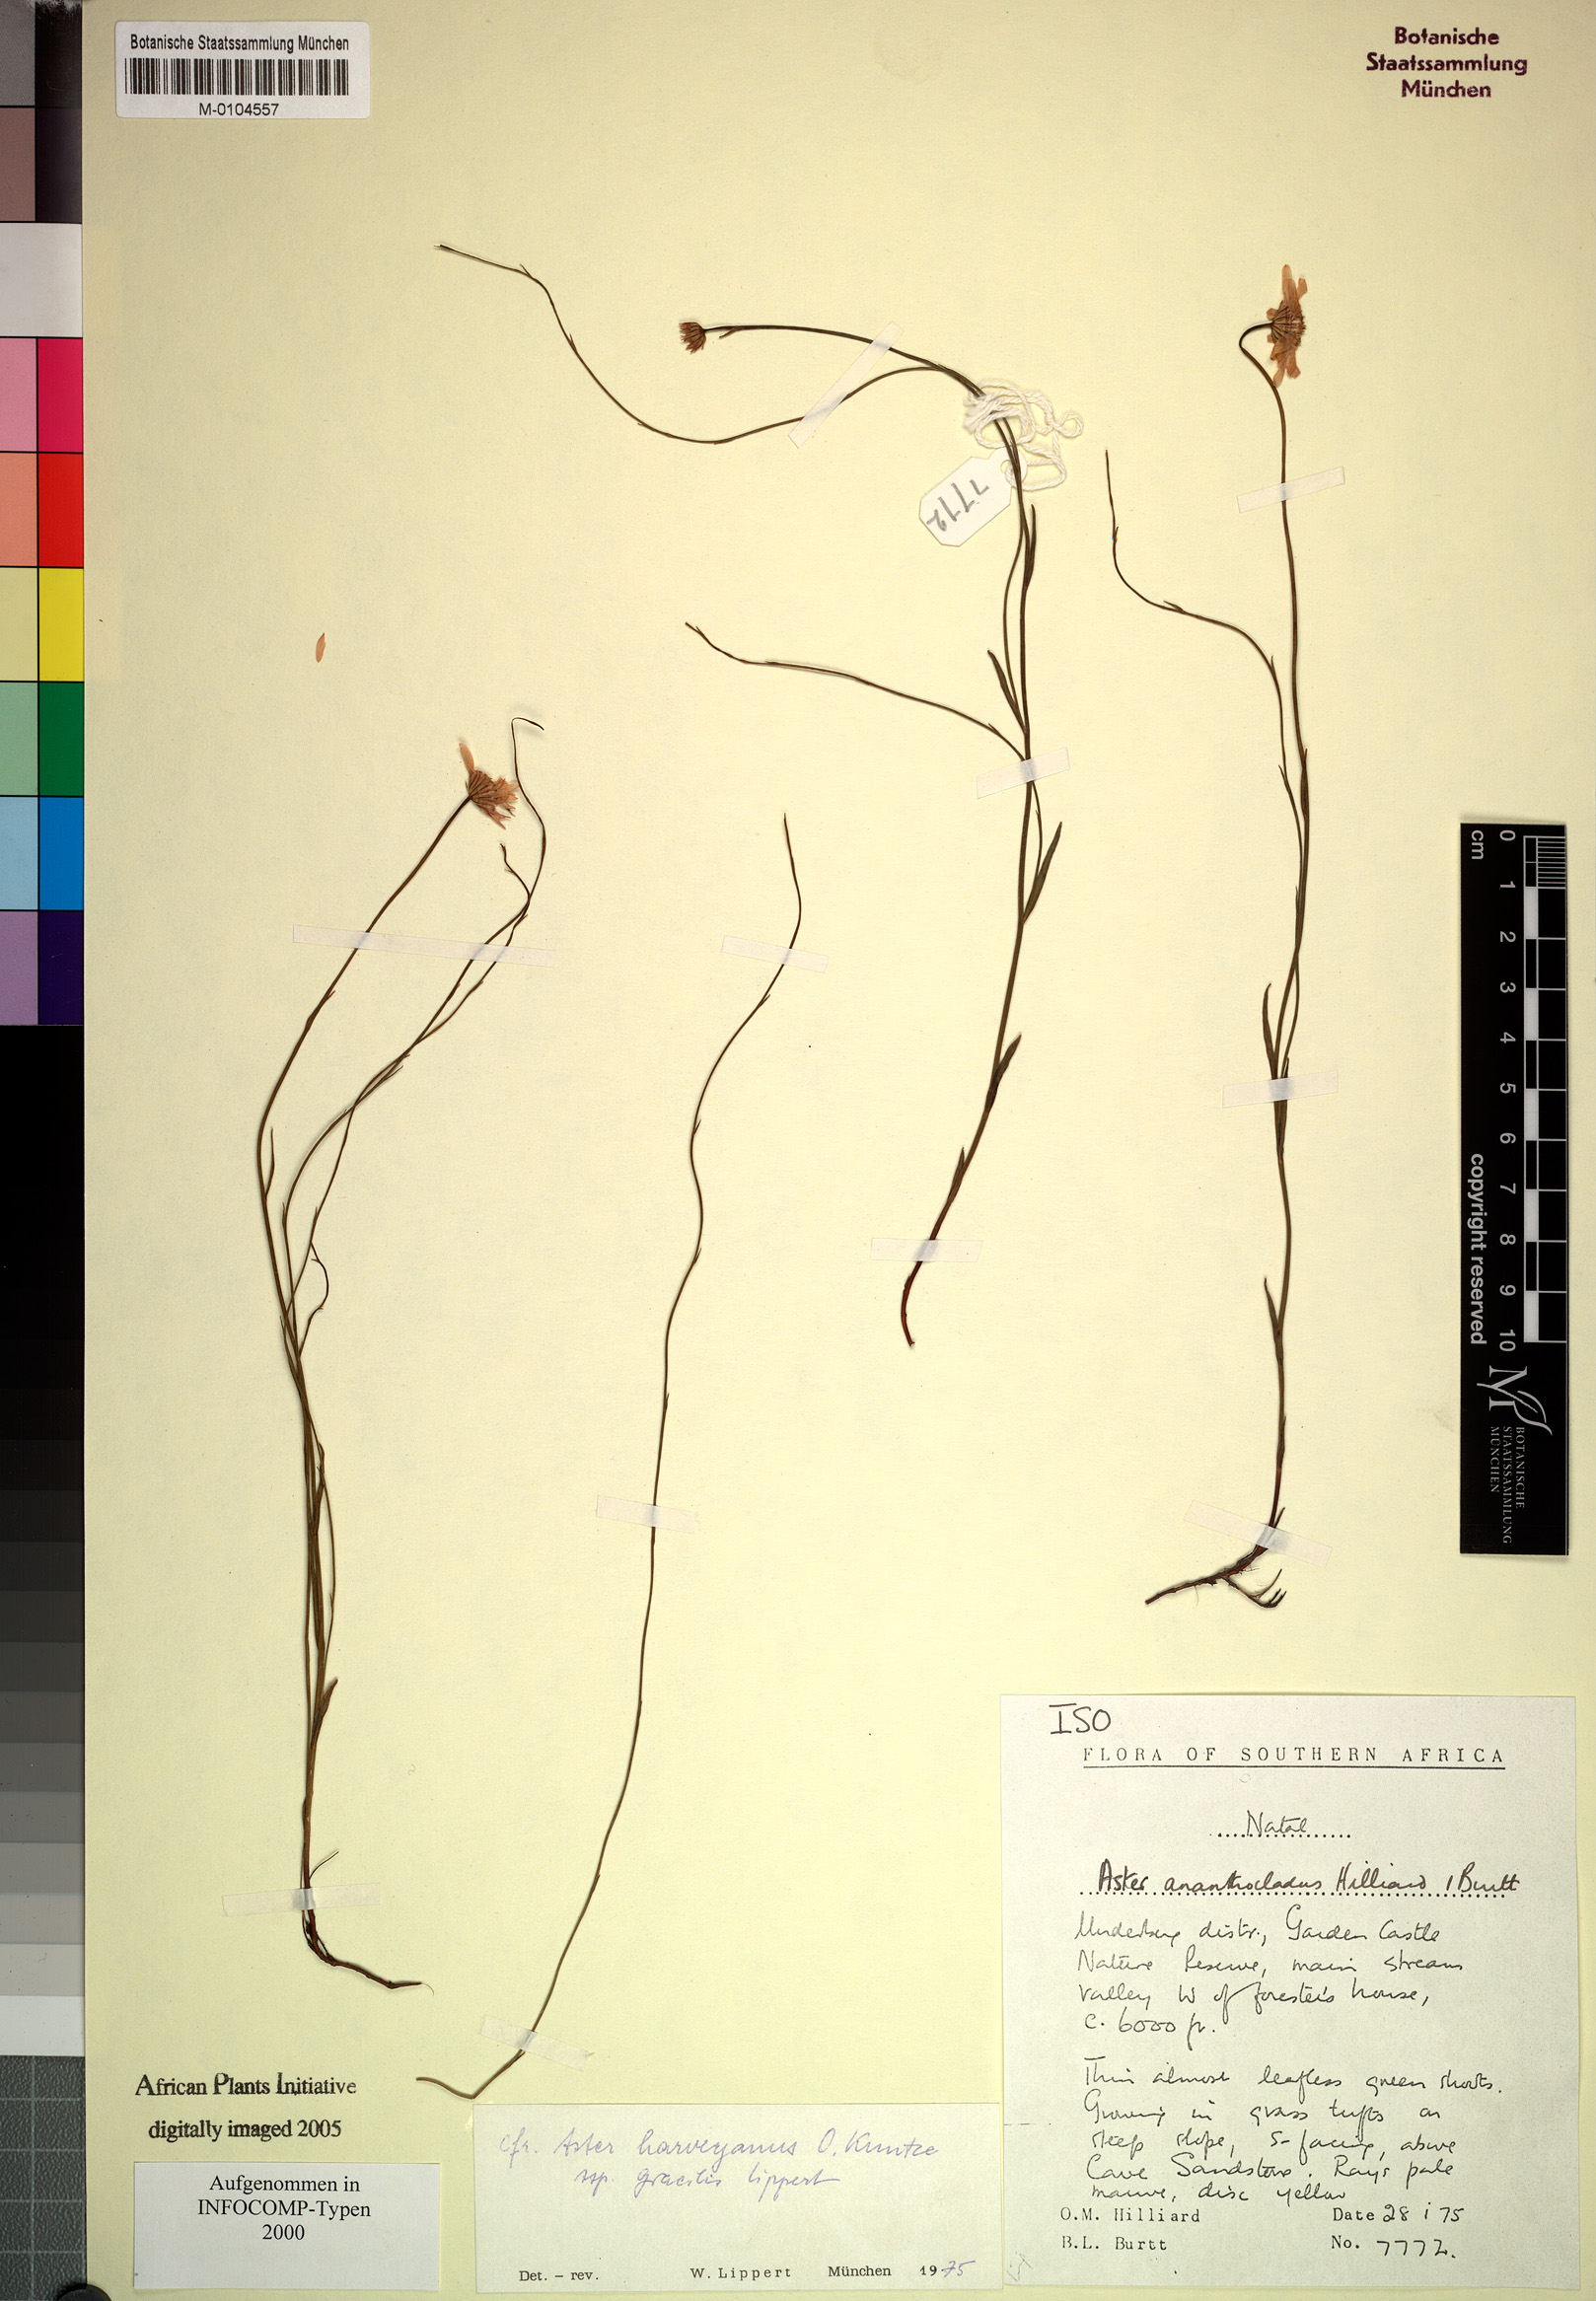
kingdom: Plantae
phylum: Tracheophyta
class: Magnoliopsida
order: Asterales
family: Asteraceae
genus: Afroaster
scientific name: Afroaster ananthocladus
